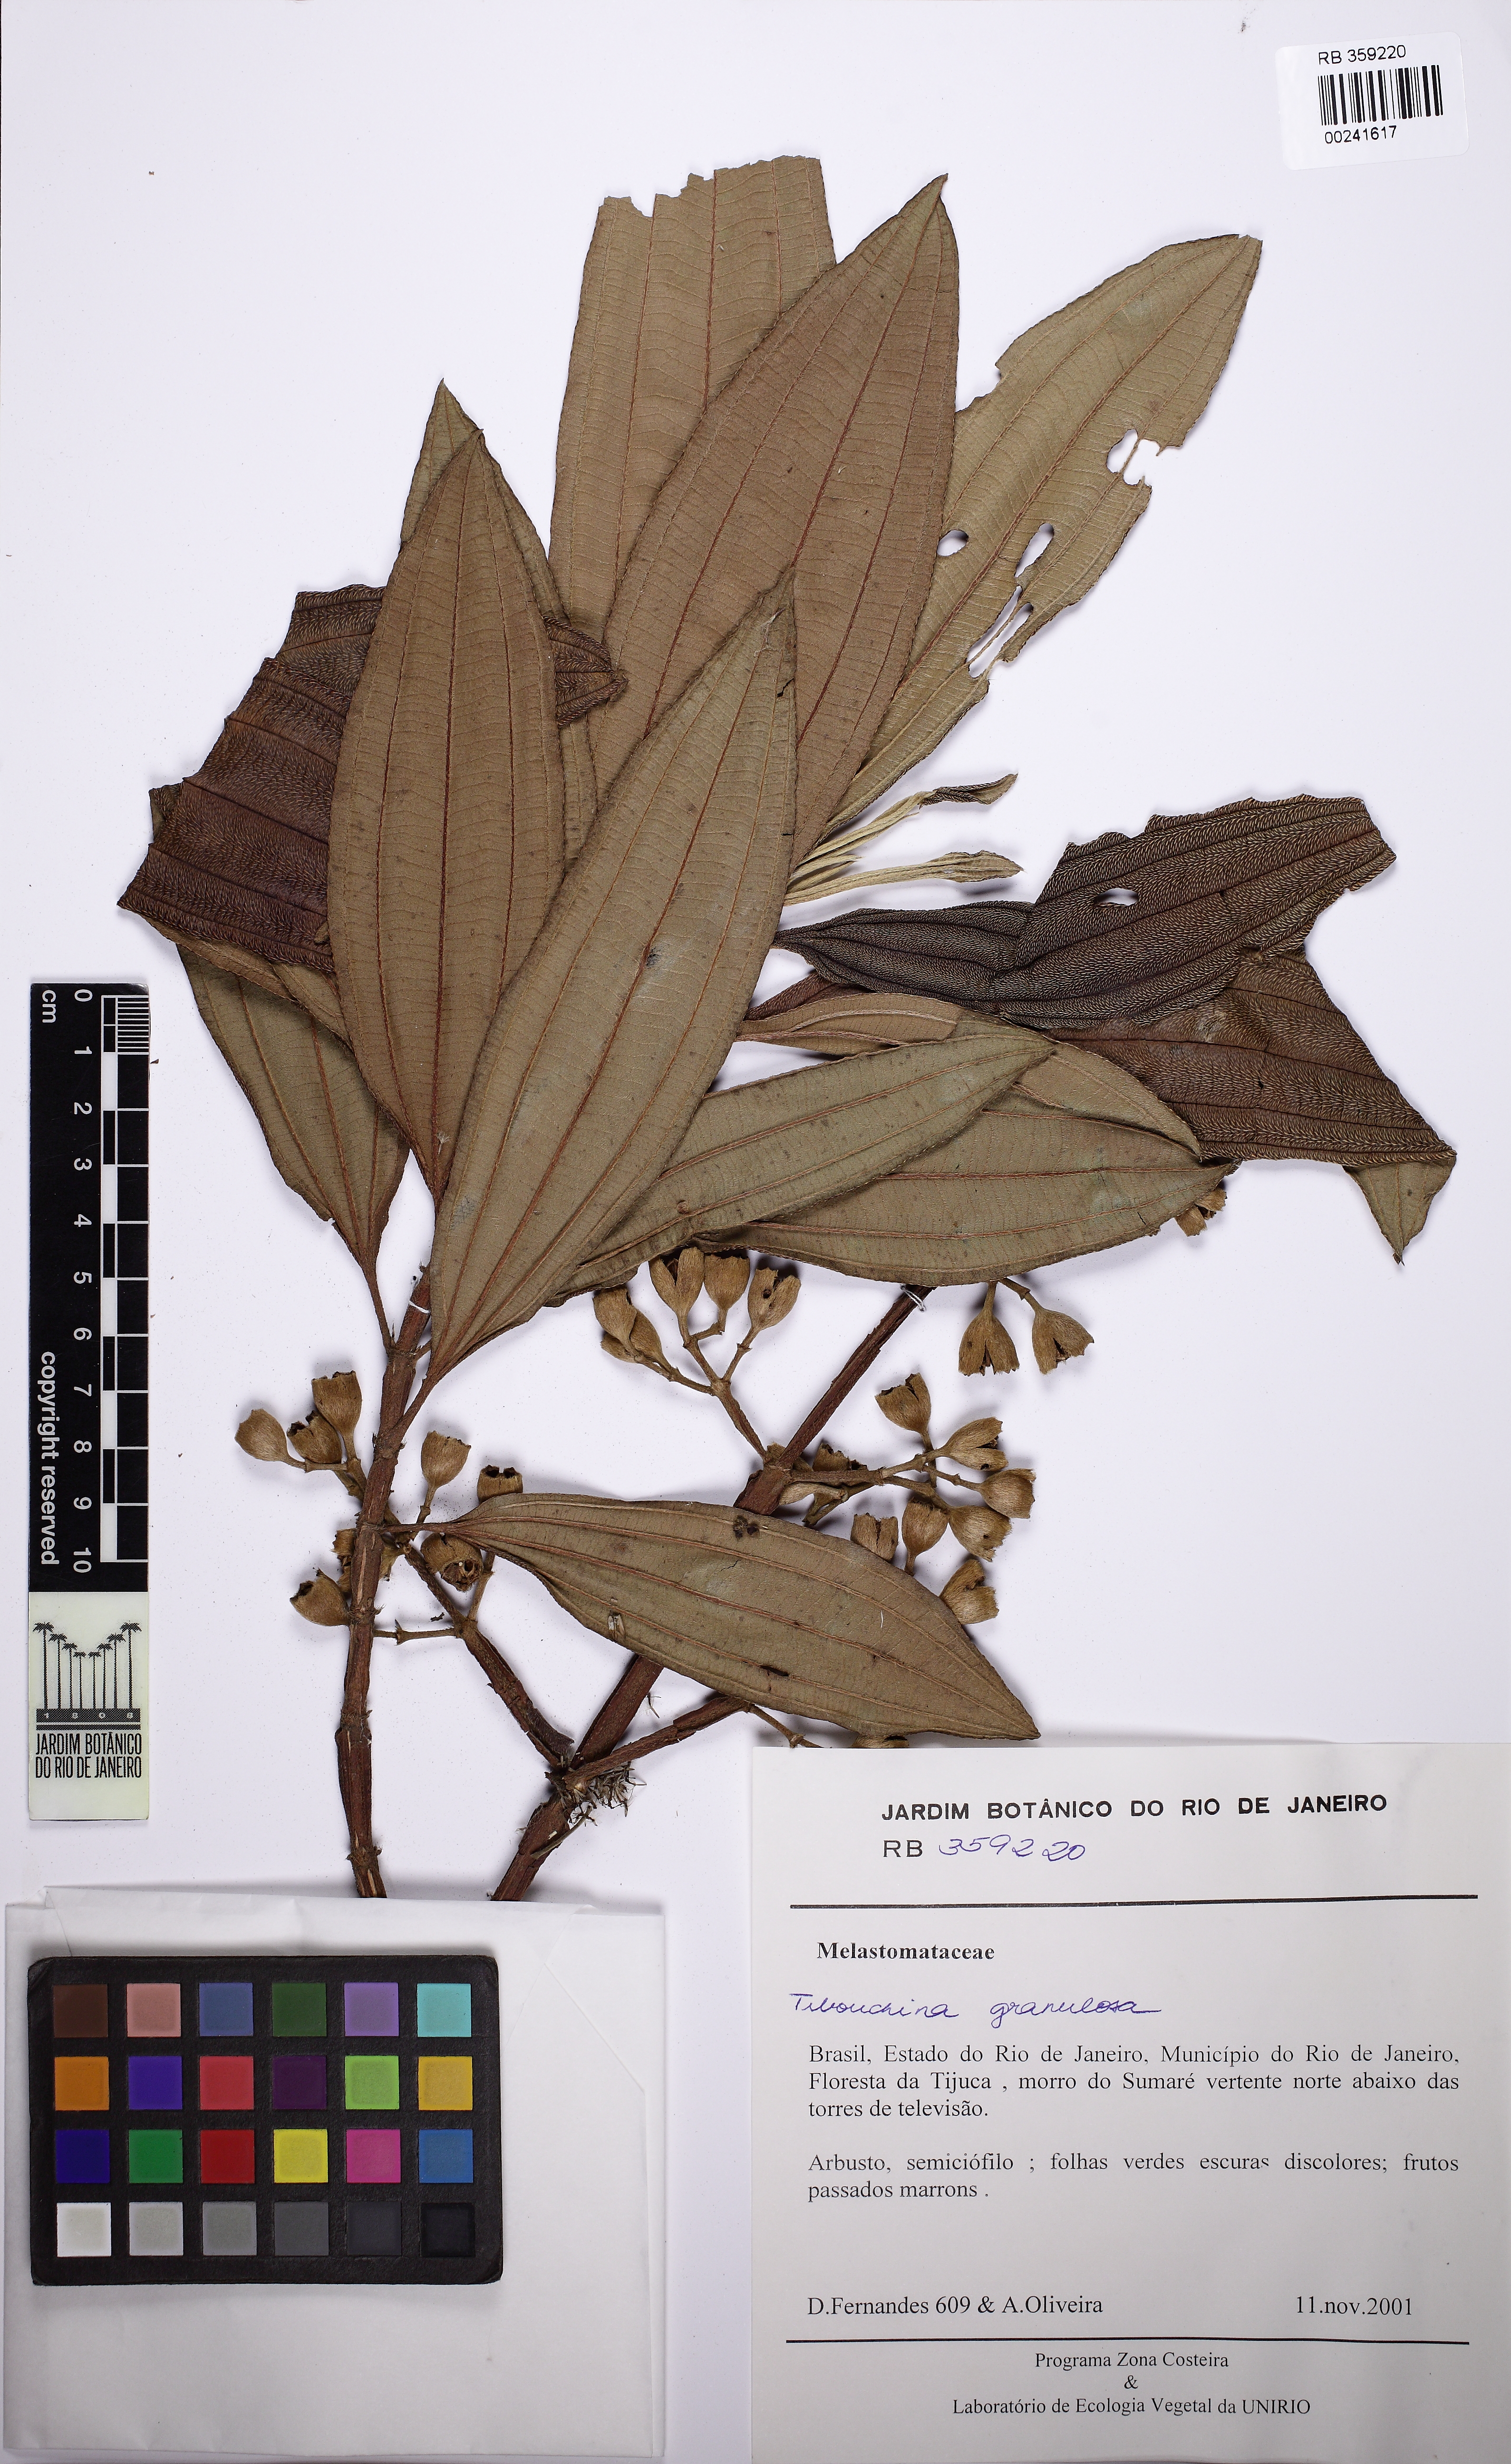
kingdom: Plantae
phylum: Tracheophyta
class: Magnoliopsida
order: Myrtales
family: Melastomataceae
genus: Pleroma
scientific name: Pleroma granulosum
